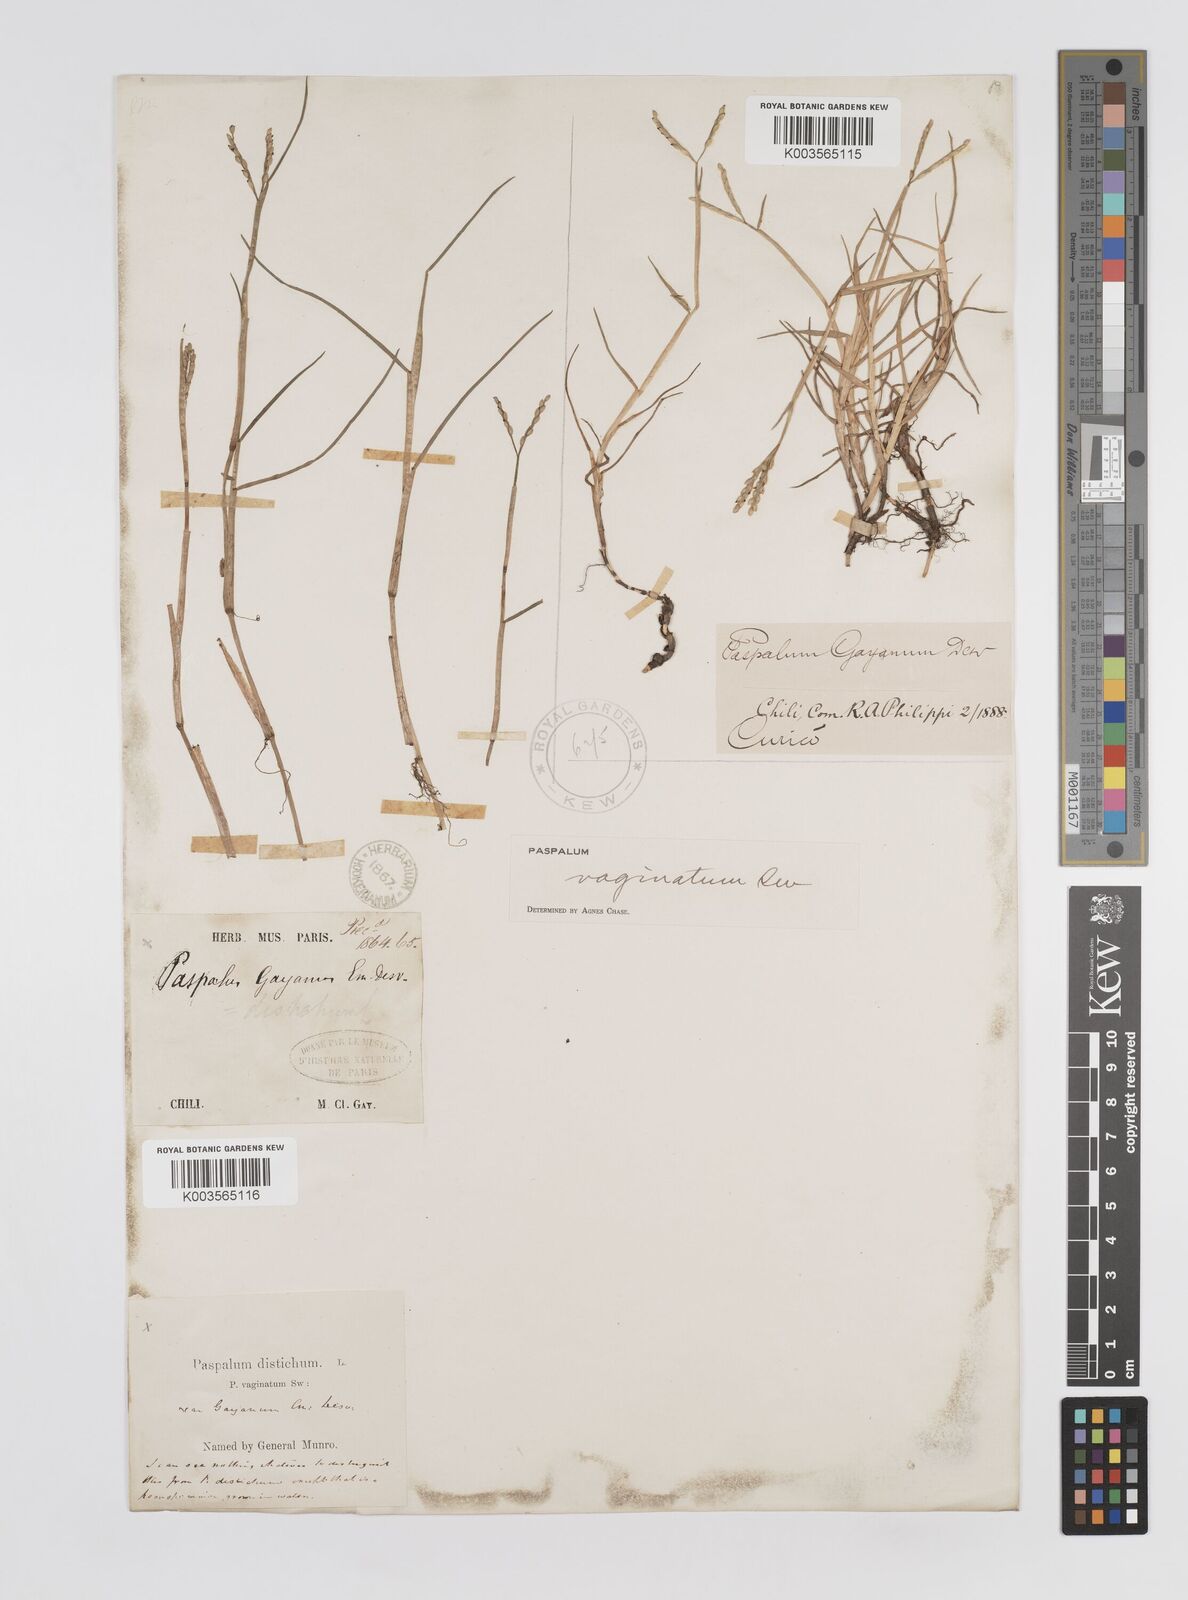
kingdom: Plantae
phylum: Tracheophyta
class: Liliopsida
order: Poales
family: Poaceae
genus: Paspalum
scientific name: Paspalum vaginatum
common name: Seashore paspalum
